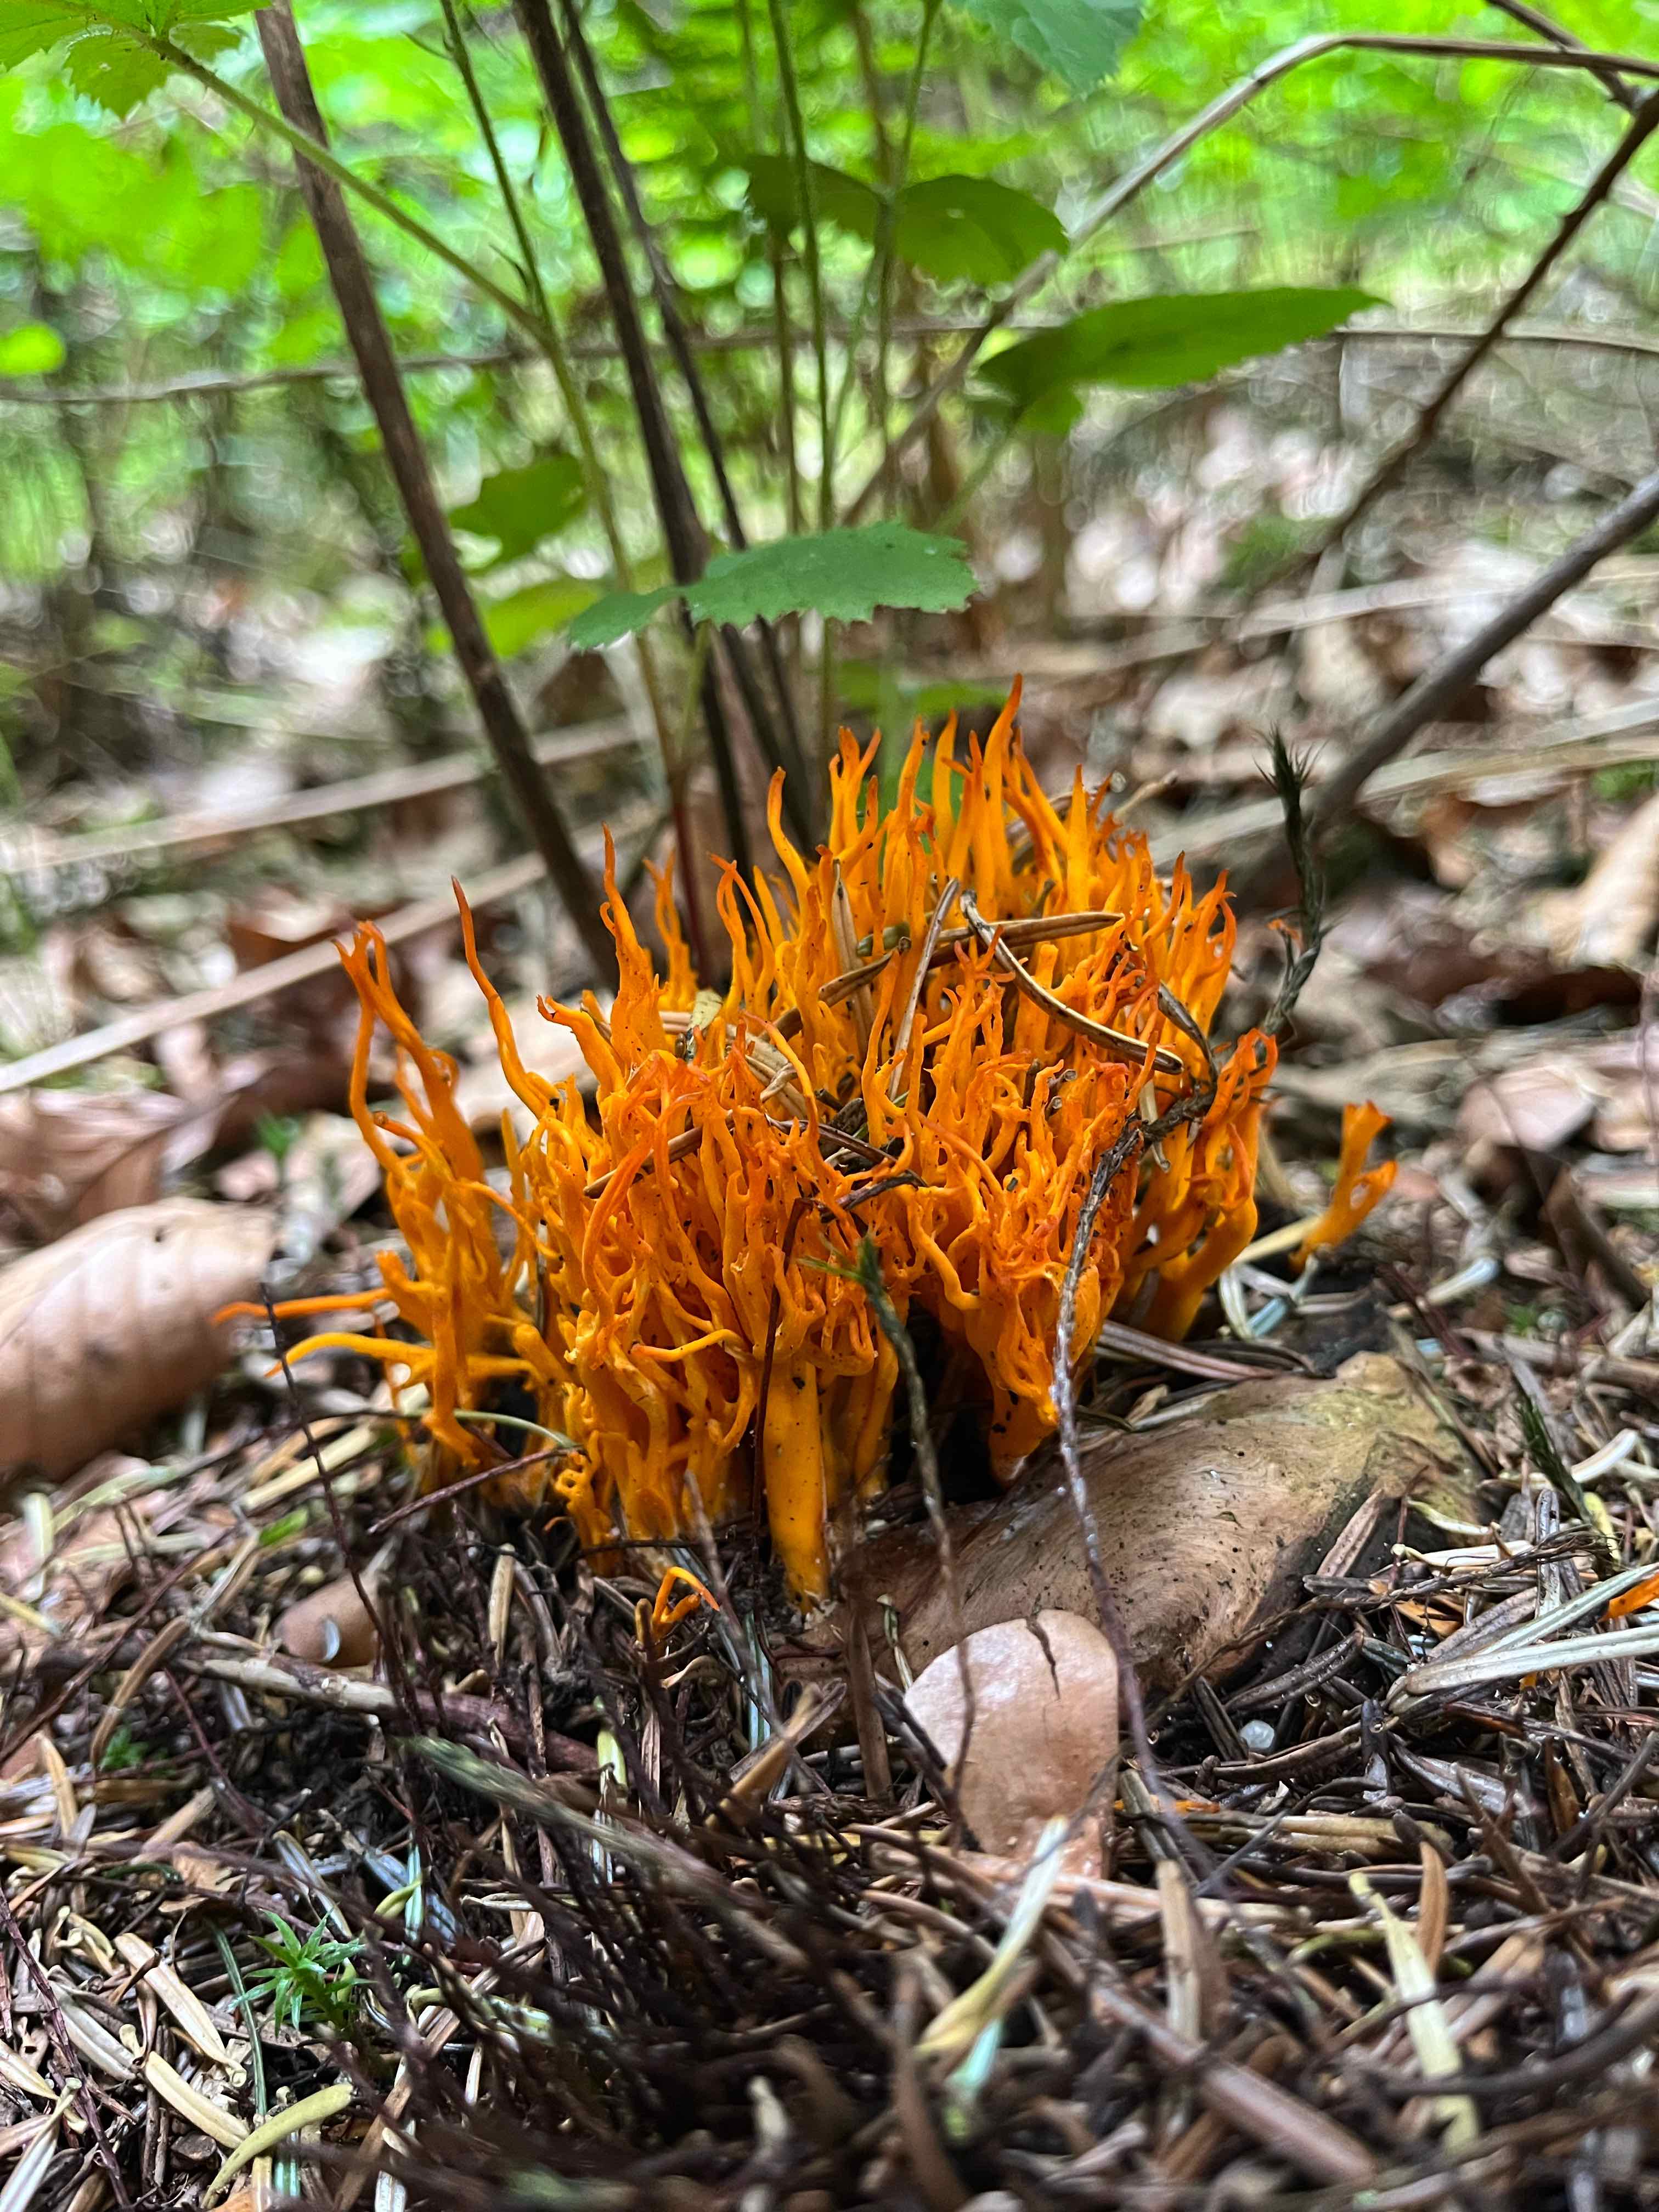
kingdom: Fungi
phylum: Basidiomycota
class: Dacrymycetes
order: Dacrymycetales
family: Dacrymycetaceae
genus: Calocera
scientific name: Calocera viscosa
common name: almindelig guldgaffel
